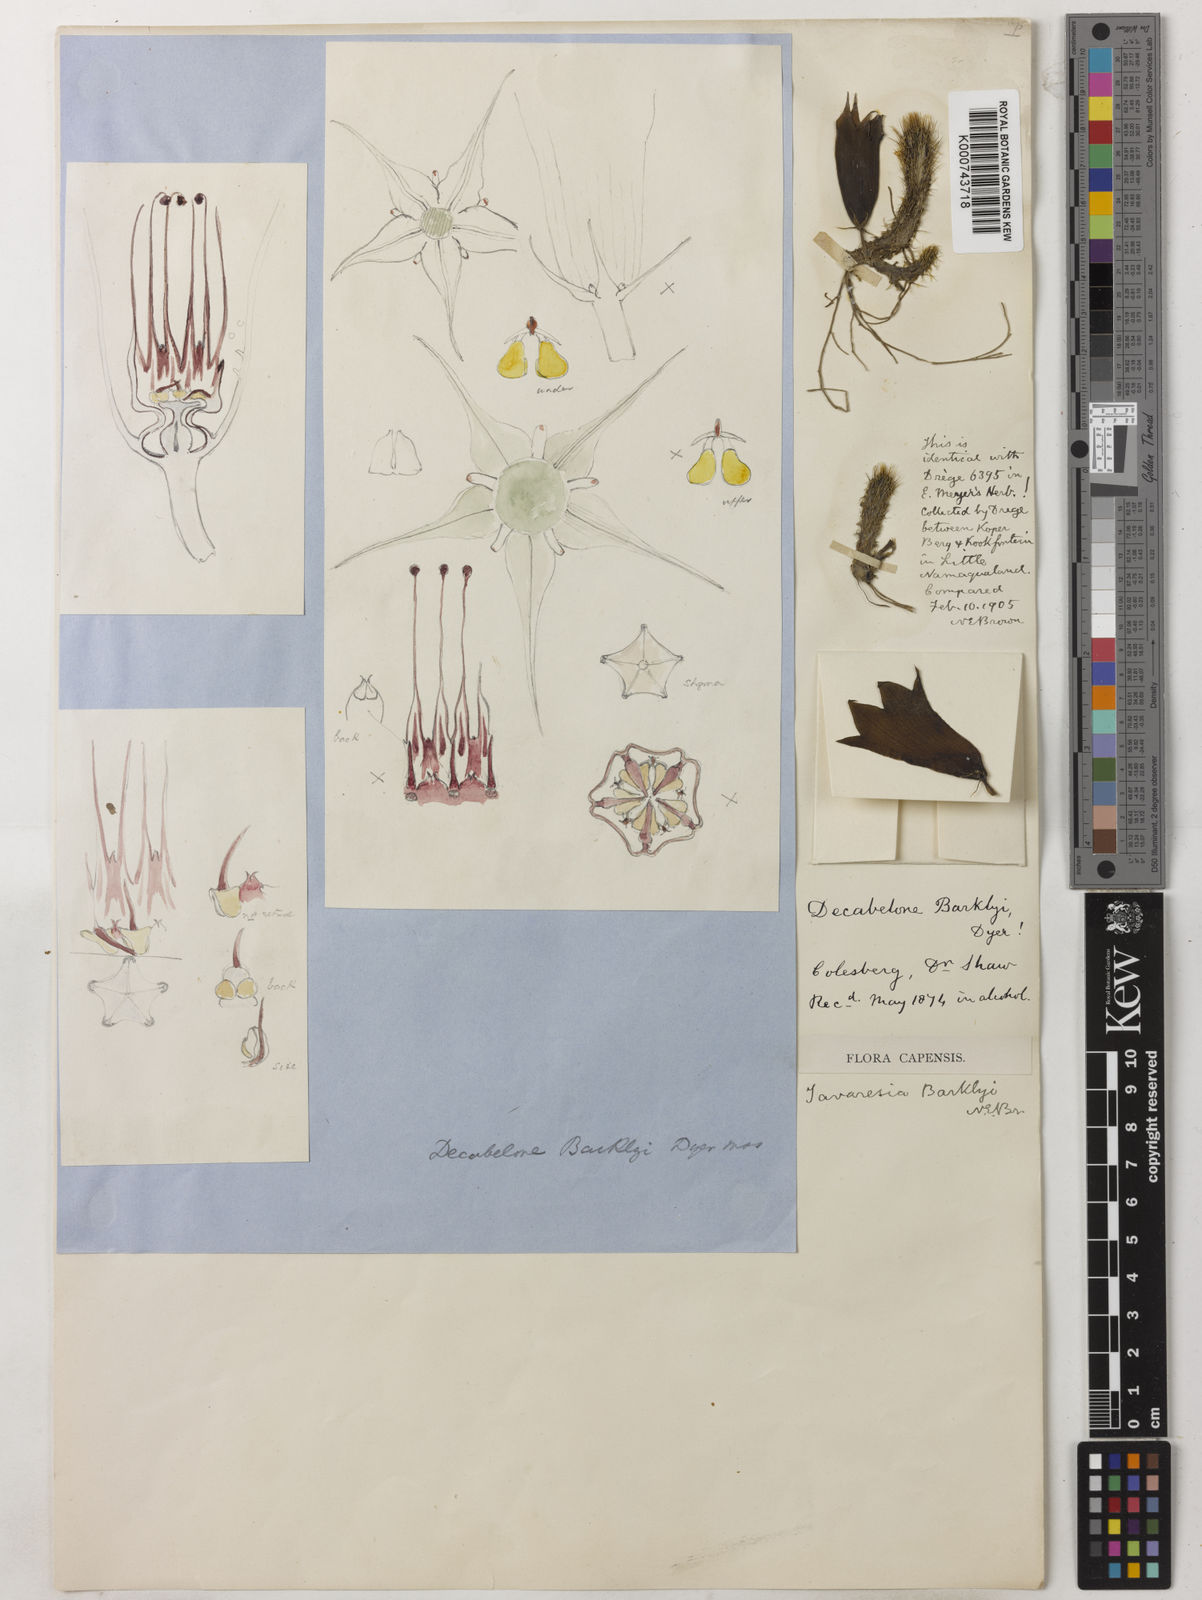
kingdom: Plantae
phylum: Tracheophyta
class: Magnoliopsida
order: Gentianales
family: Apocynaceae
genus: Ceropegia
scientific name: Ceropegia barklyana
